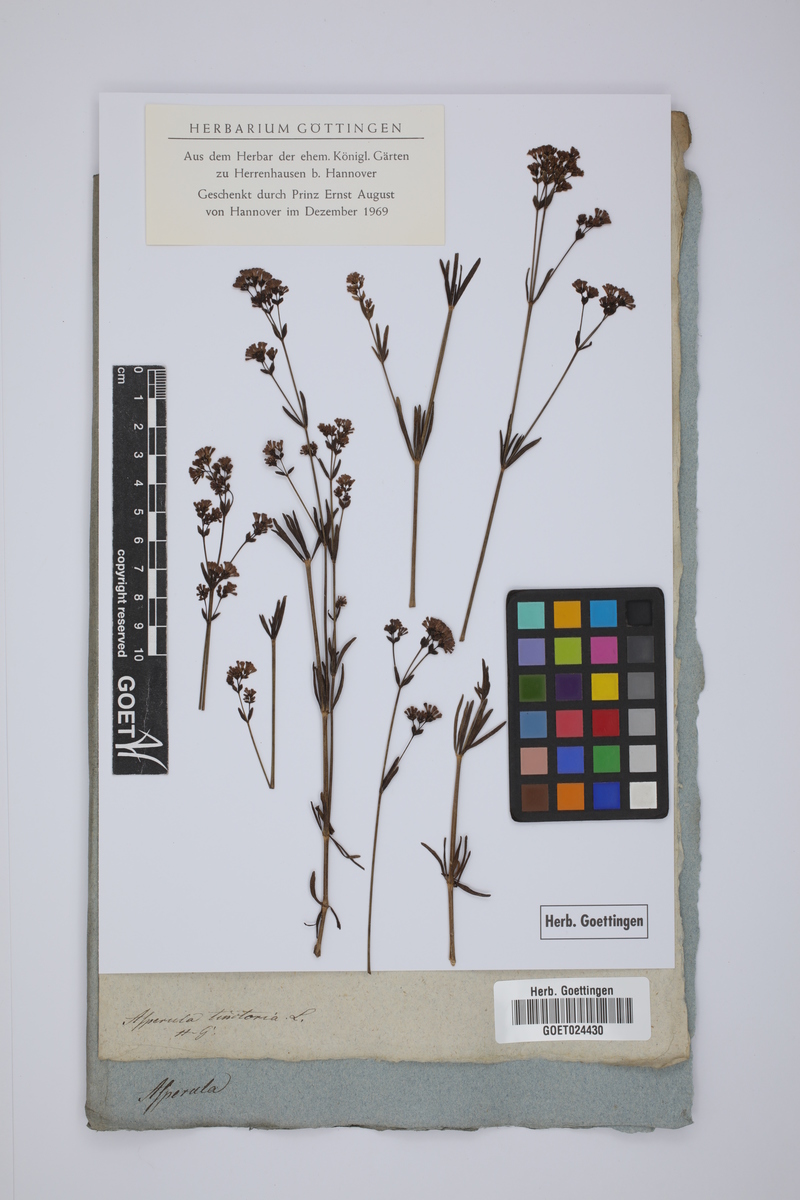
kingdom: Plantae
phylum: Tracheophyta
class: Magnoliopsida
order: Gentianales
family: Rubiaceae
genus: Asperula
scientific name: Asperula tinctoria
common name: Dyer's woodruff
